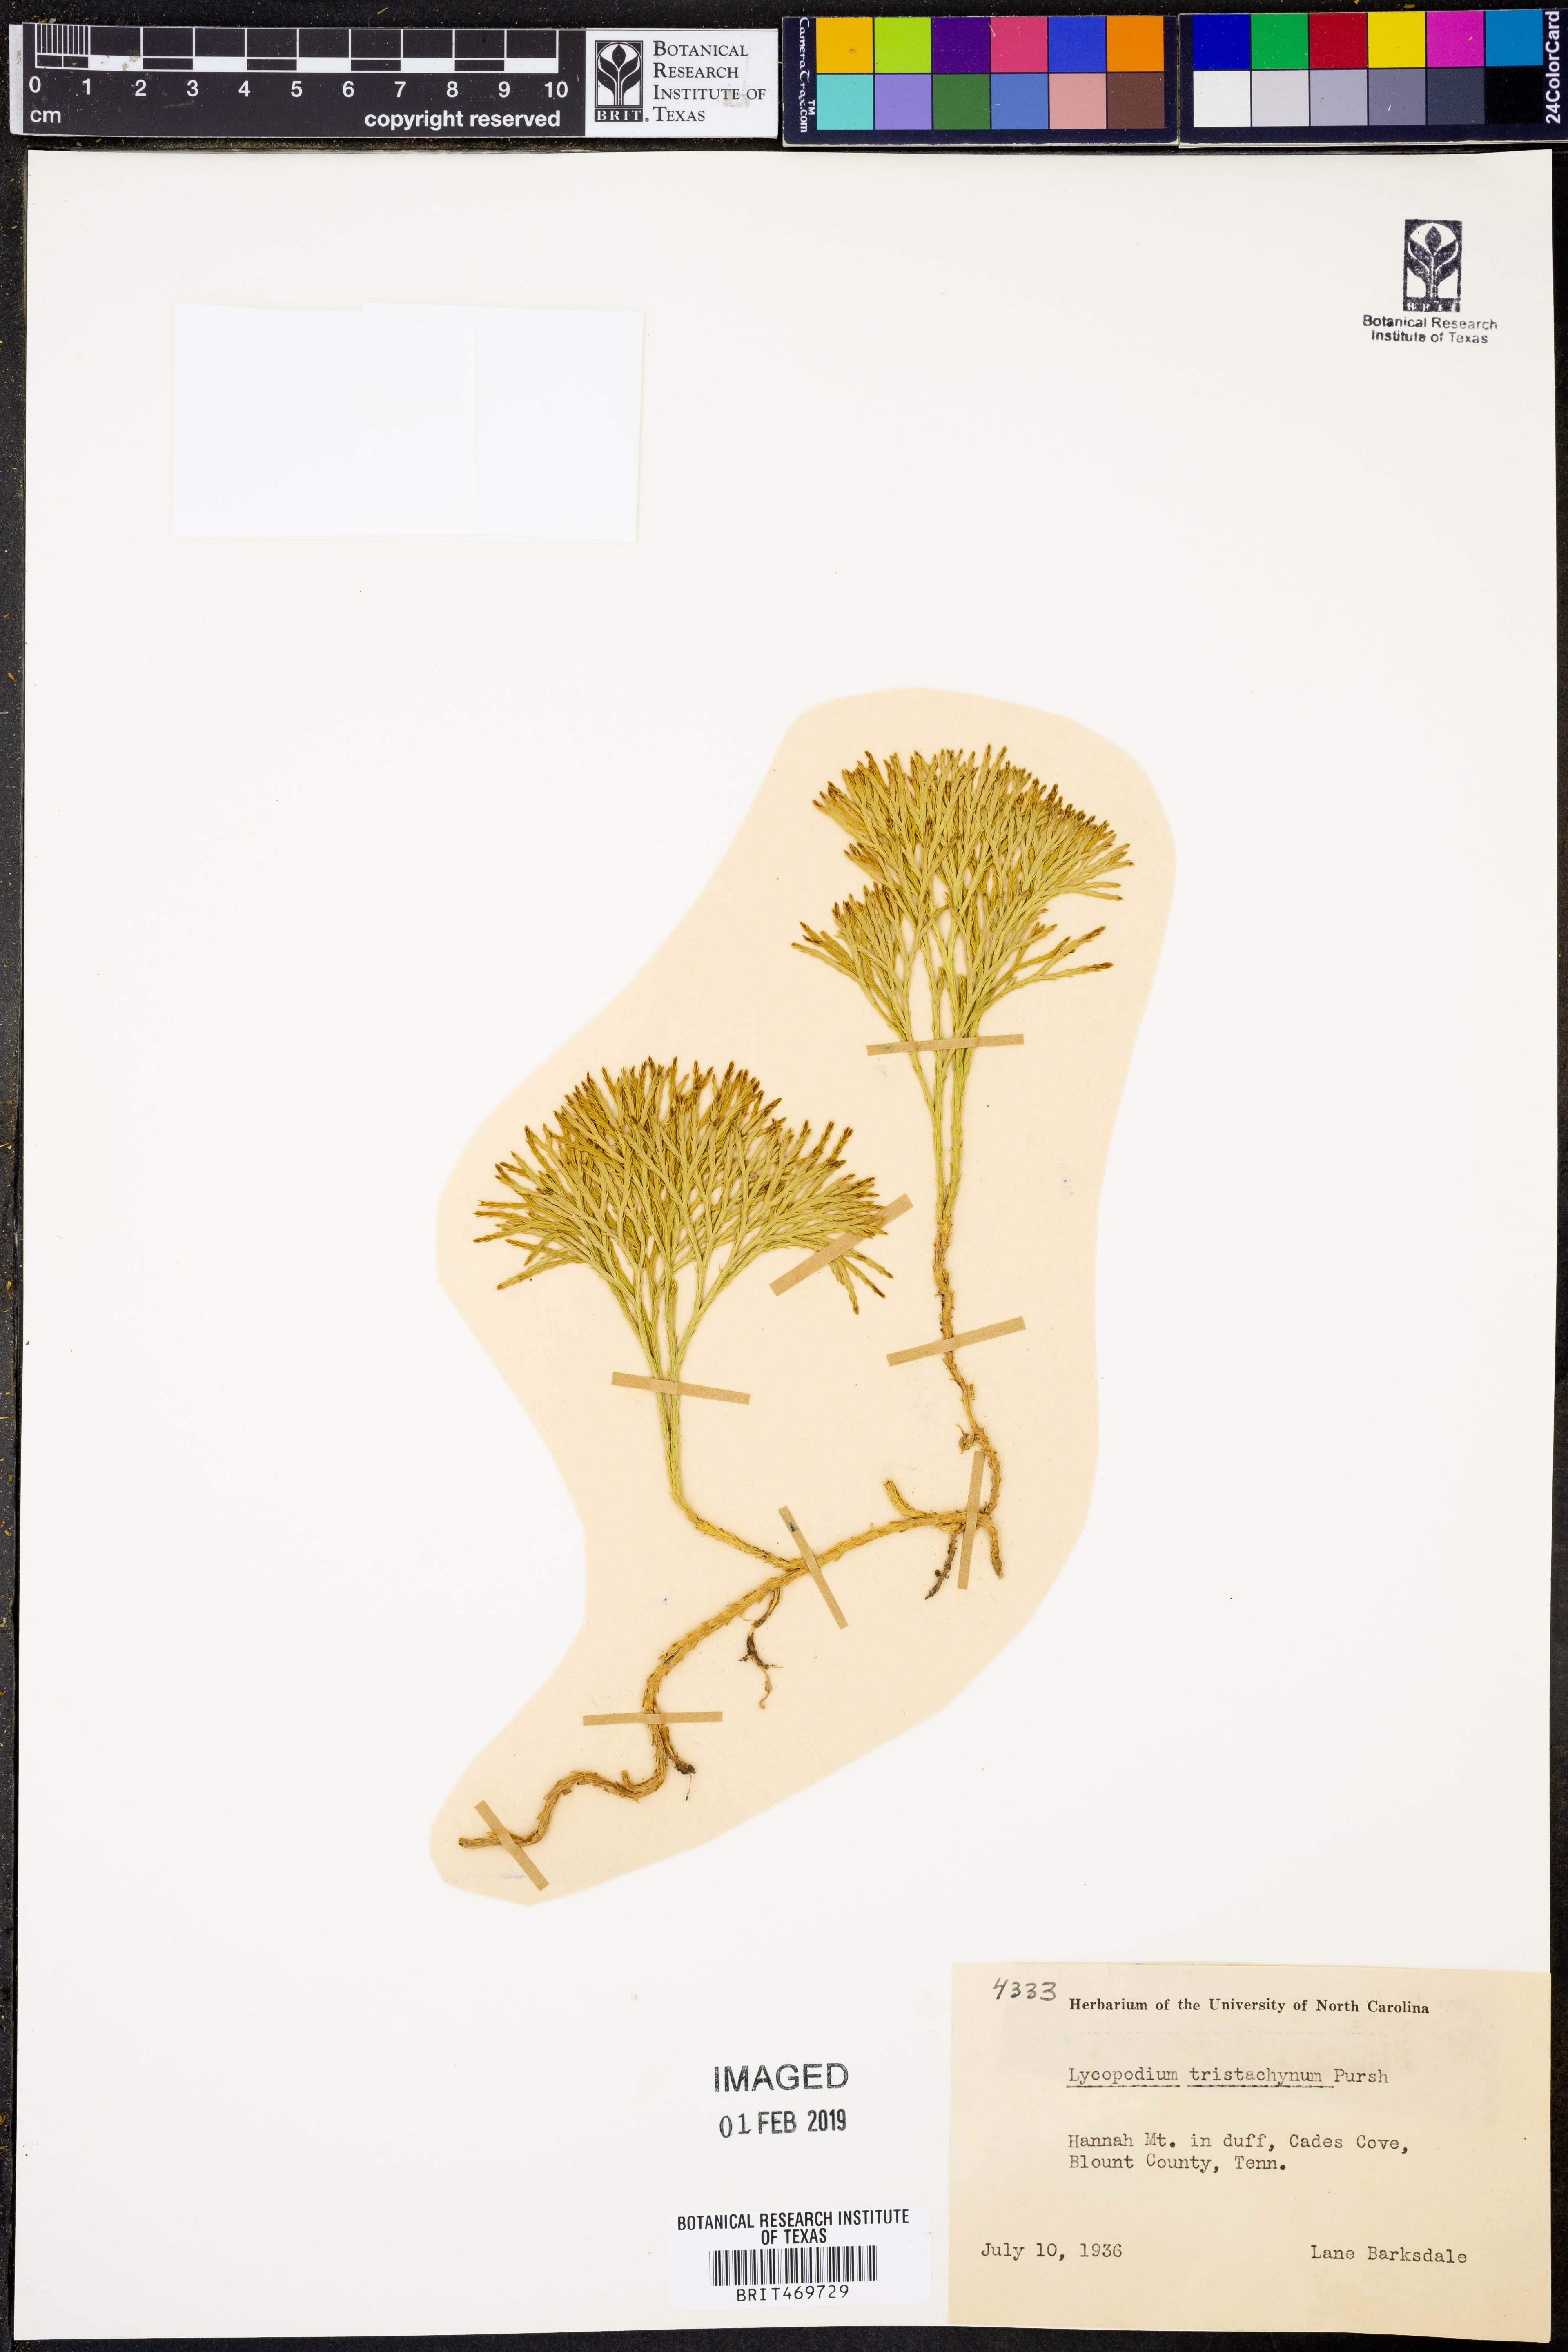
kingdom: Plantae
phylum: Tracheophyta
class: Lycopodiopsida
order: Lycopodiales
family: Lycopodiaceae
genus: Diphasiastrum
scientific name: Diphasiastrum tristachyum
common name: Blue ground-cedar
